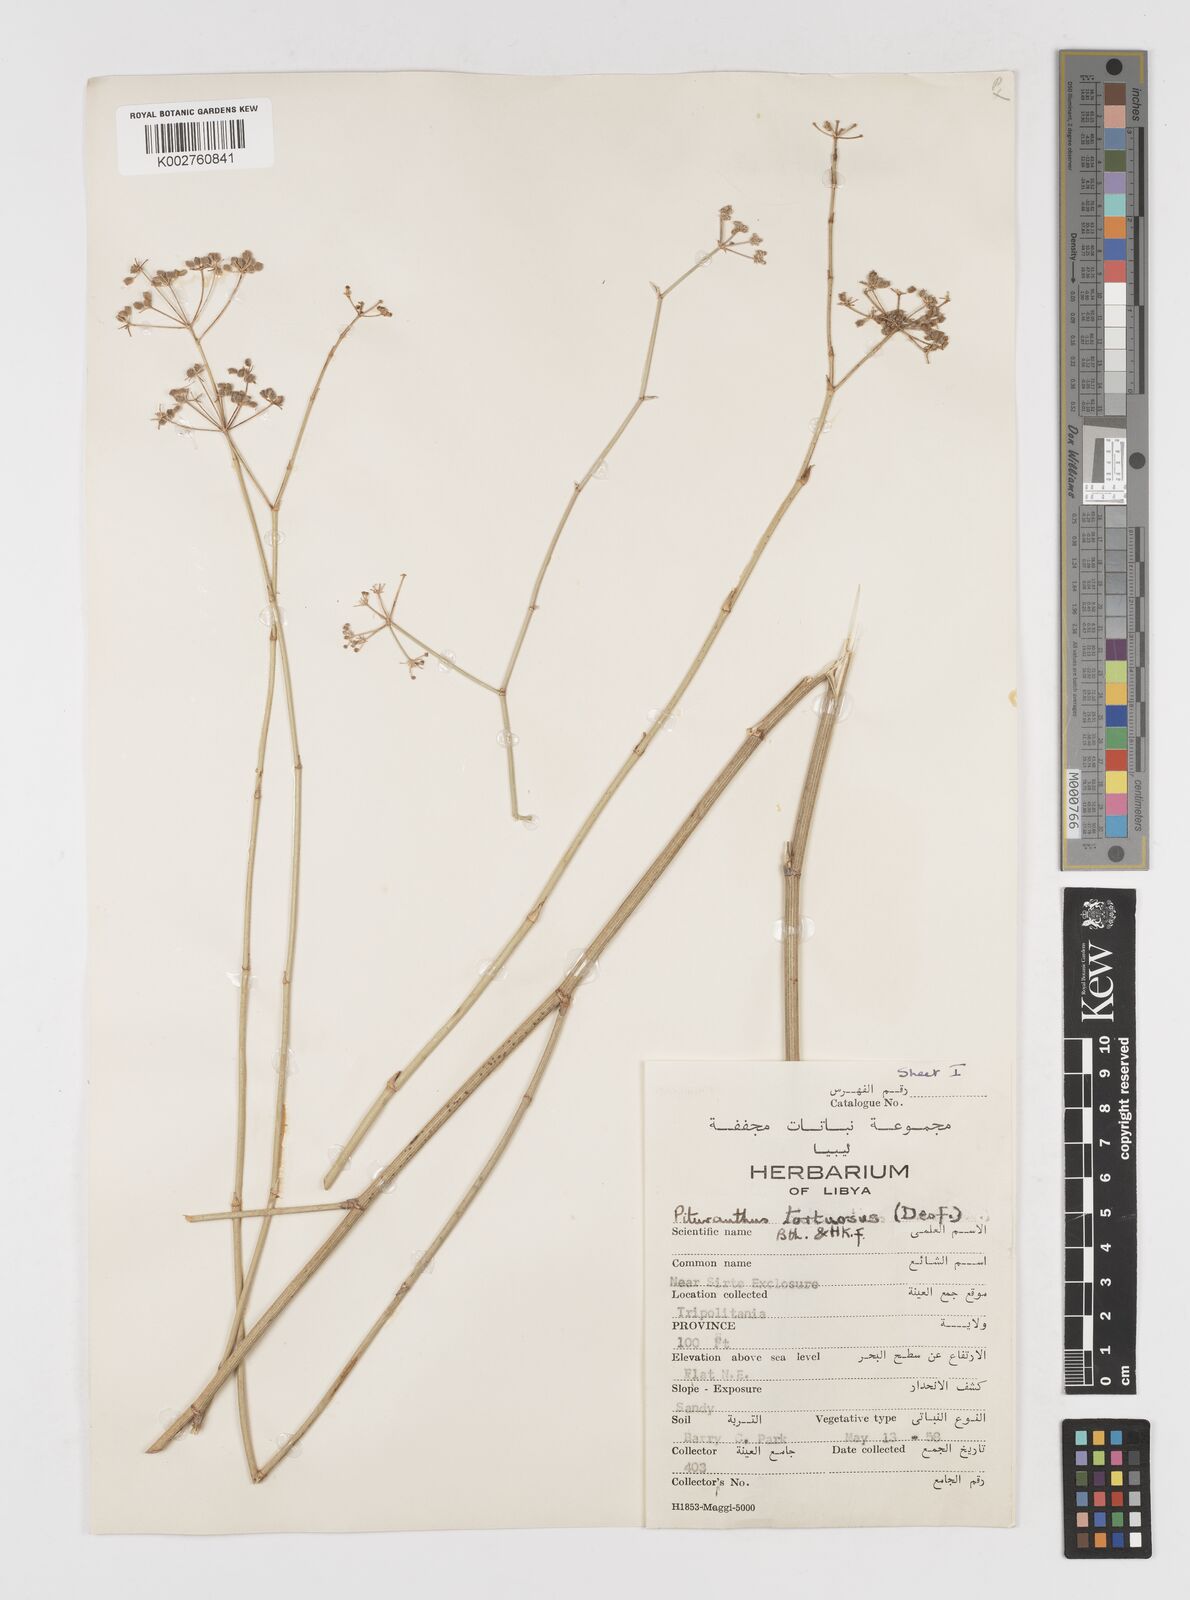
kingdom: Plantae
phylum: Tracheophyta
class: Magnoliopsida
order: Apiales
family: Apiaceae
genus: Deverra
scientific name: Deverra tortuosa
